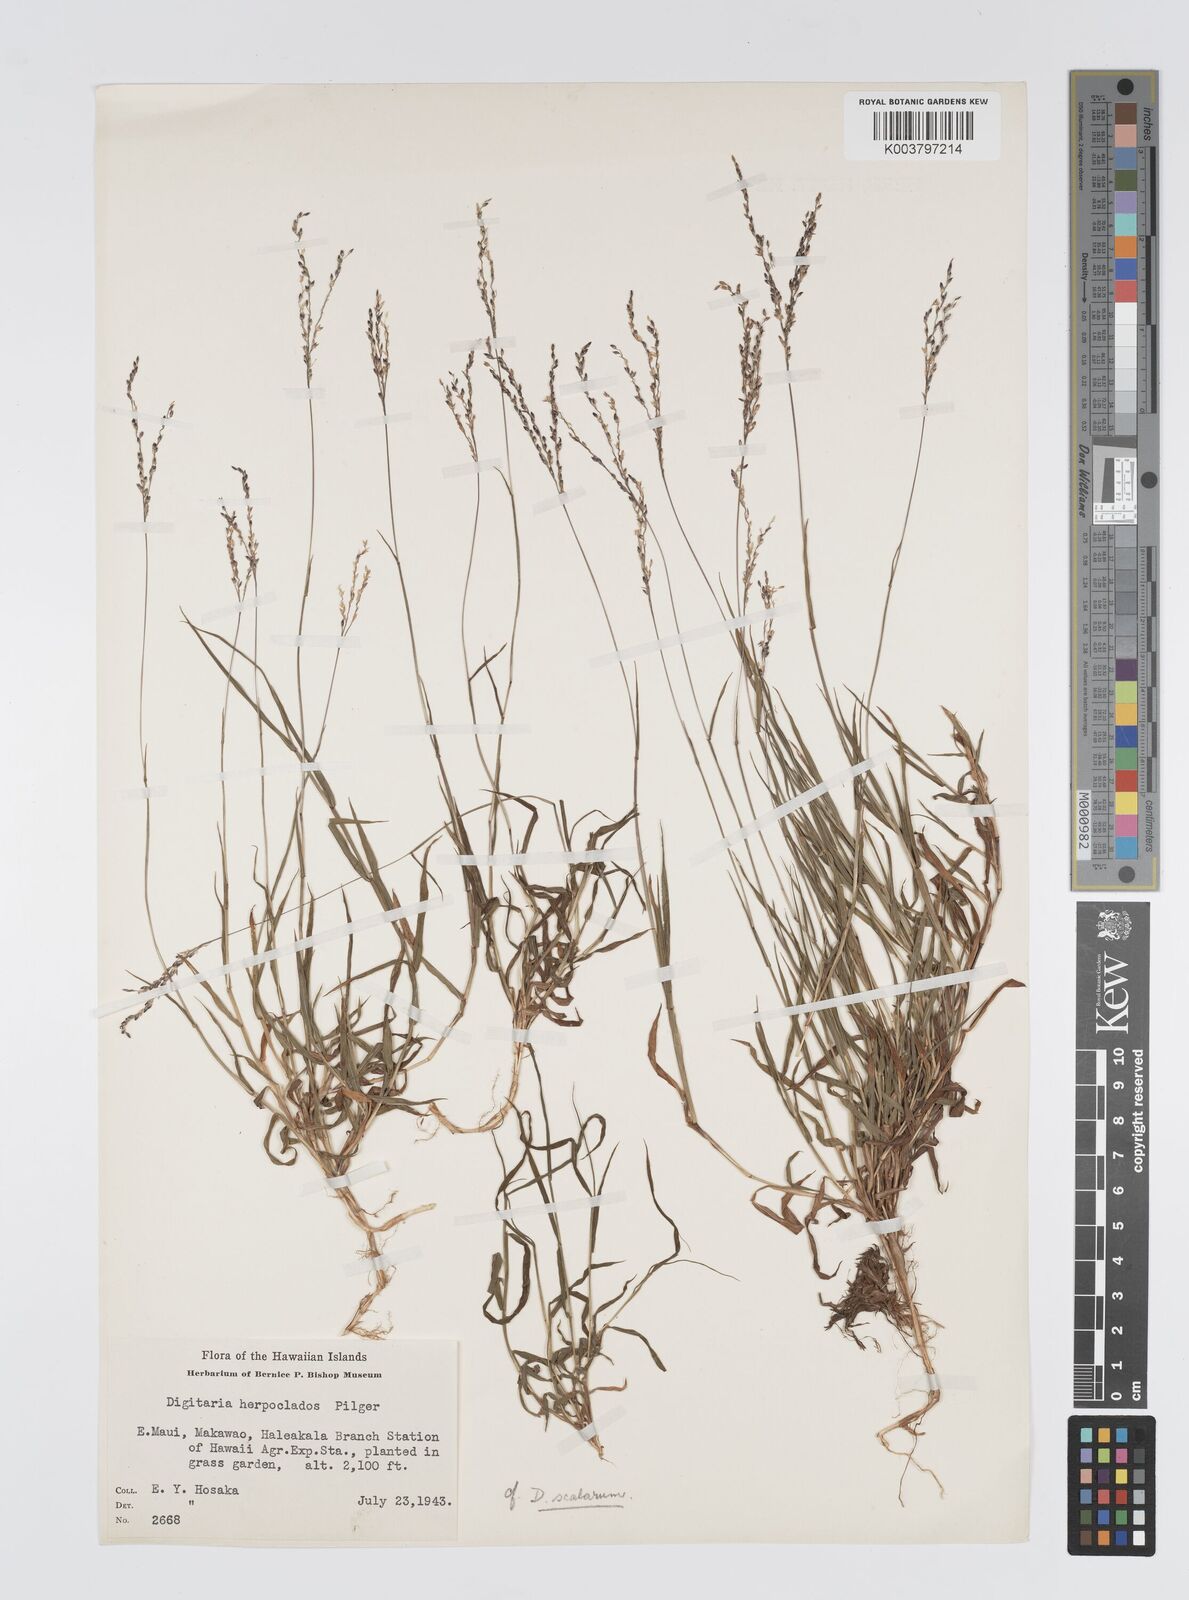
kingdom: Plantae
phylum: Tracheophyta
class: Liliopsida
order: Poales
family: Poaceae
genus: Digitaria
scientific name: Digitaria abyssinica
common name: African couchgrass
